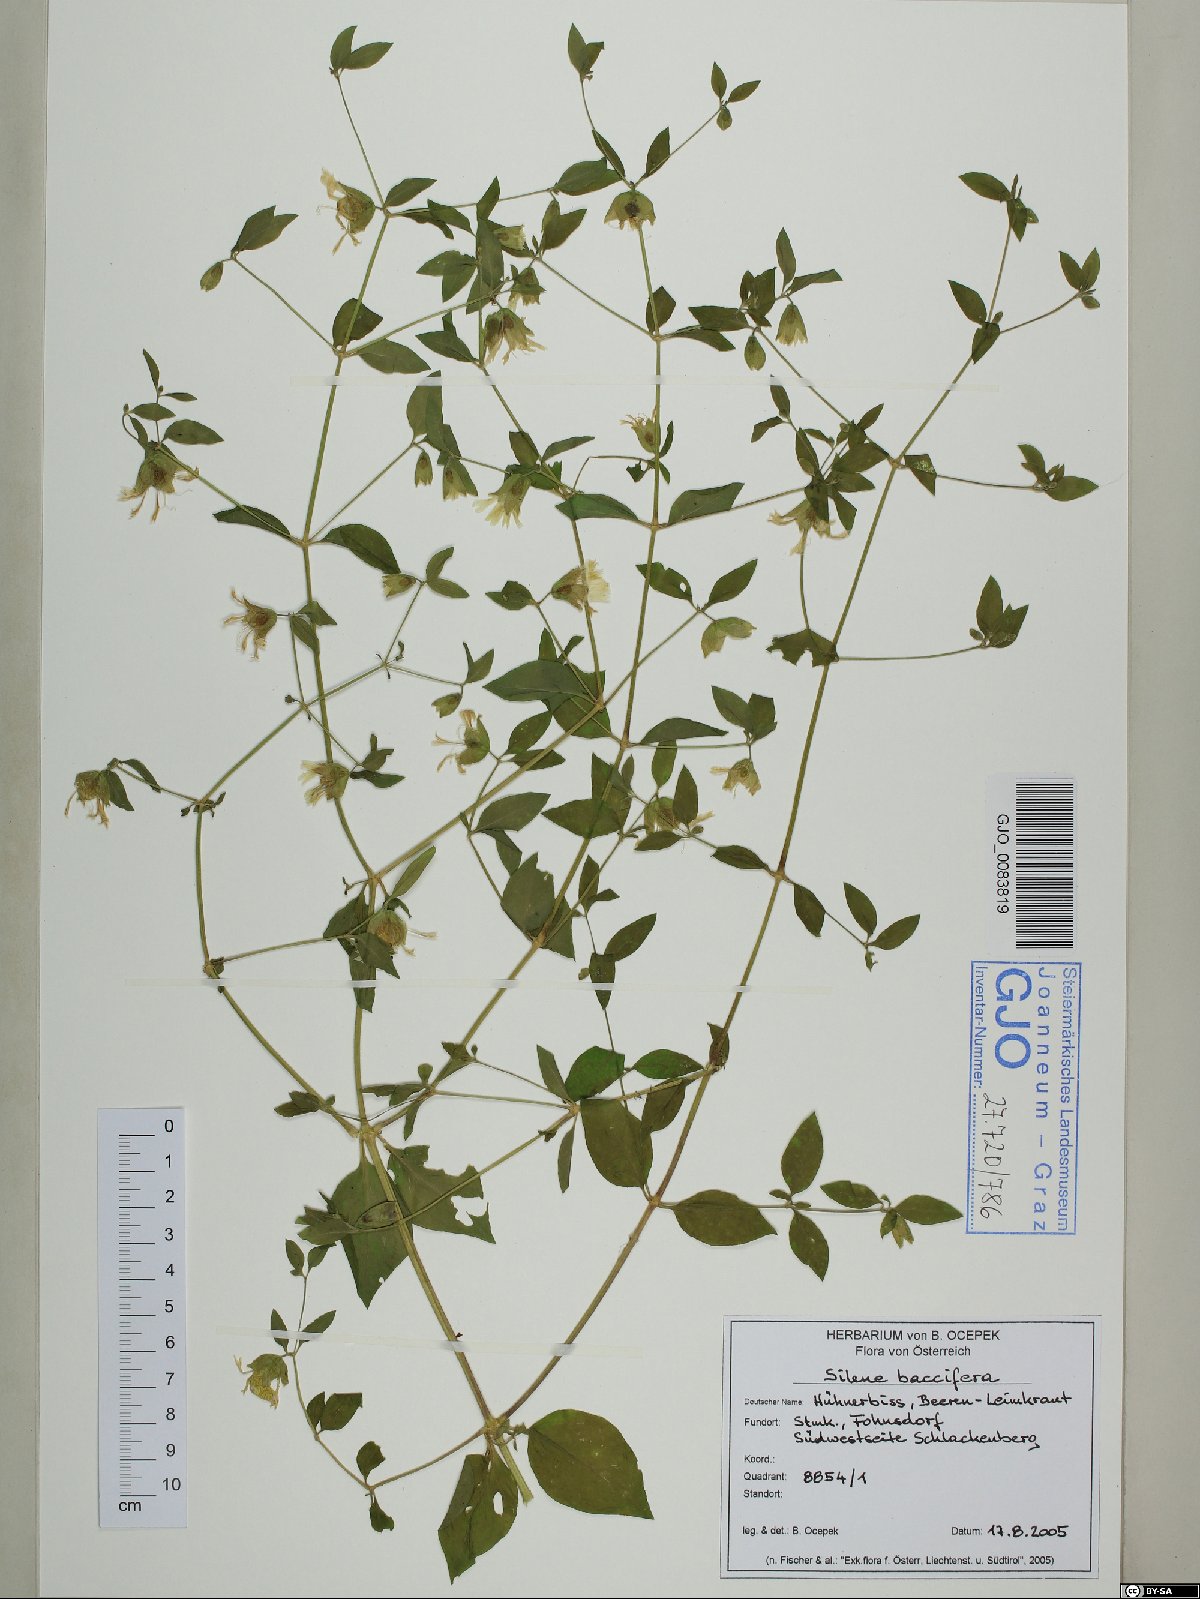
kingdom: Plantae
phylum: Tracheophyta
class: Magnoliopsida
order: Caryophyllales
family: Caryophyllaceae
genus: Silene
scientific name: Silene baccifera
